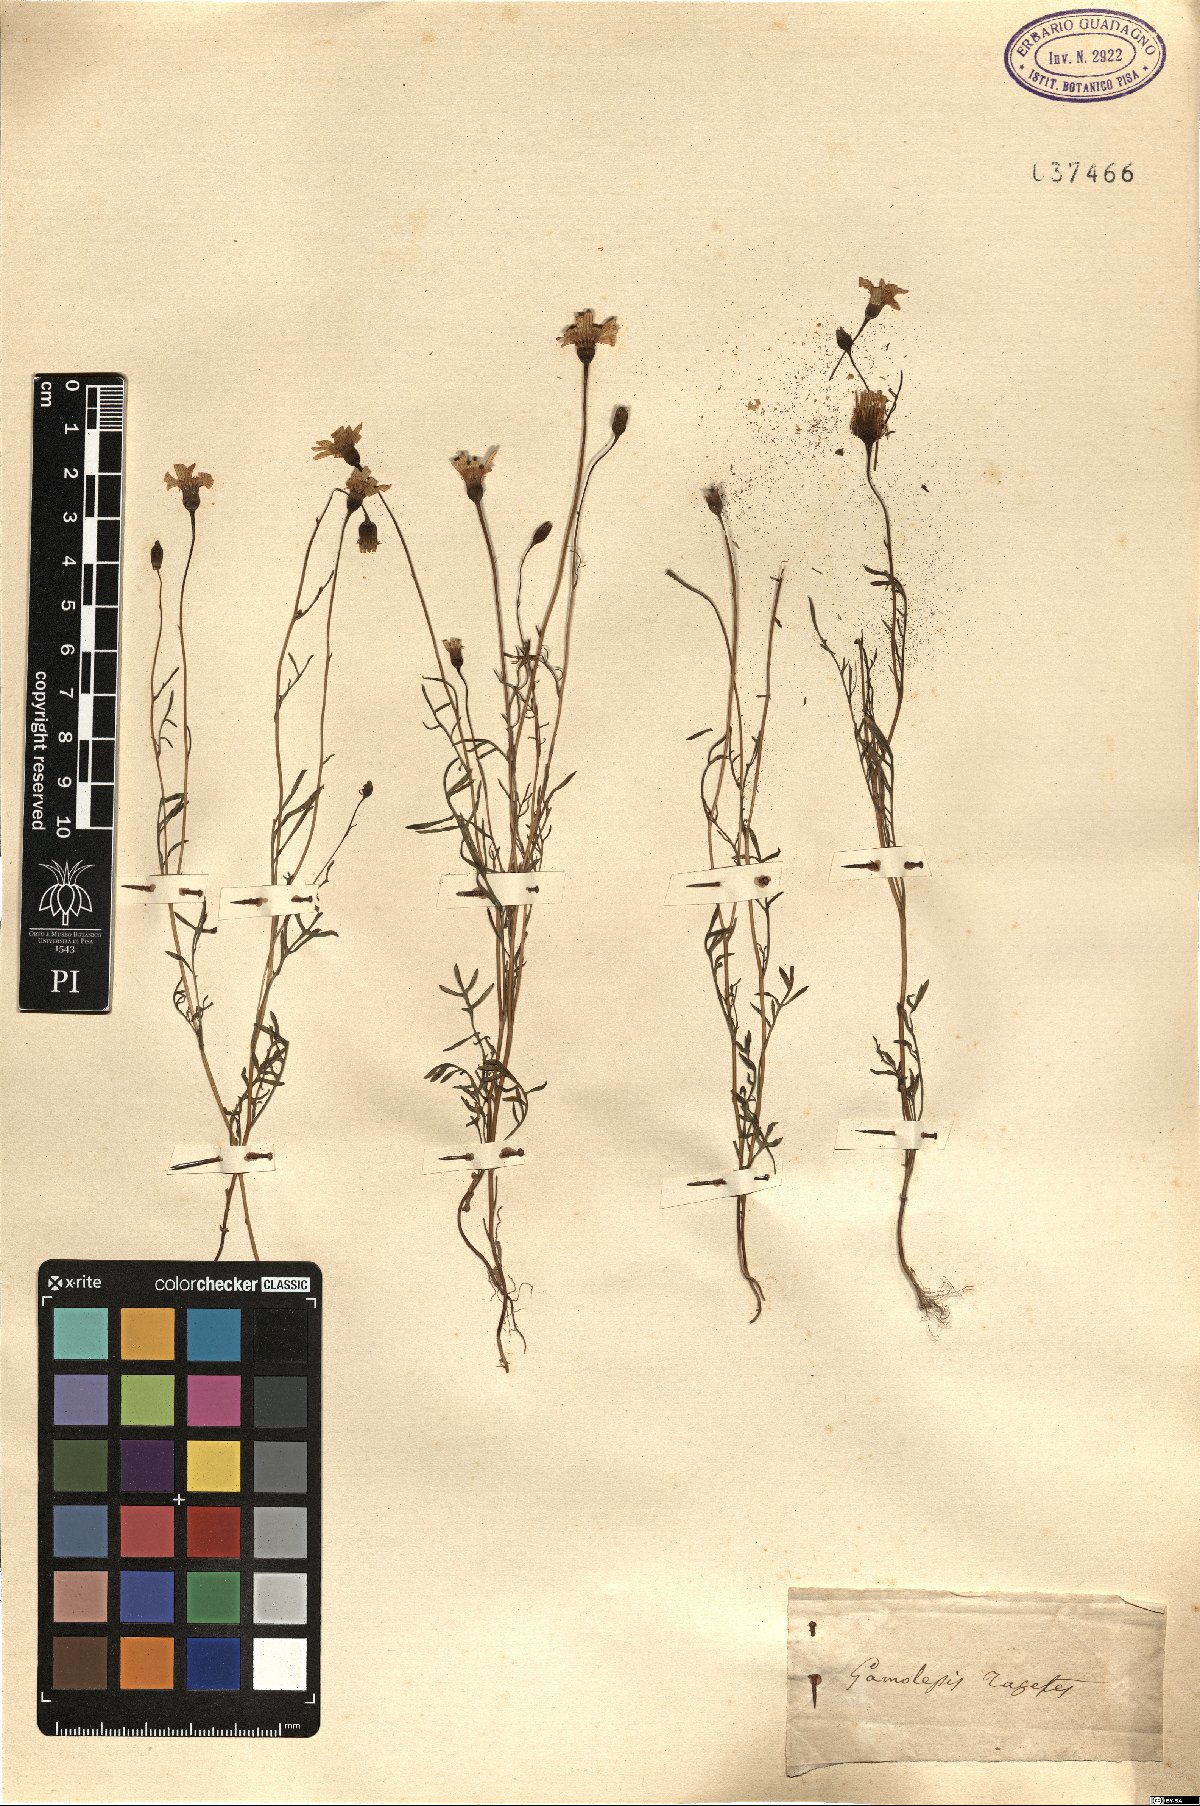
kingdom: Plantae
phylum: Tracheophyta
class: Magnoliopsida
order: Asterales
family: Asteraceae
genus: Steirodiscus
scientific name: Steirodiscus tagetes
